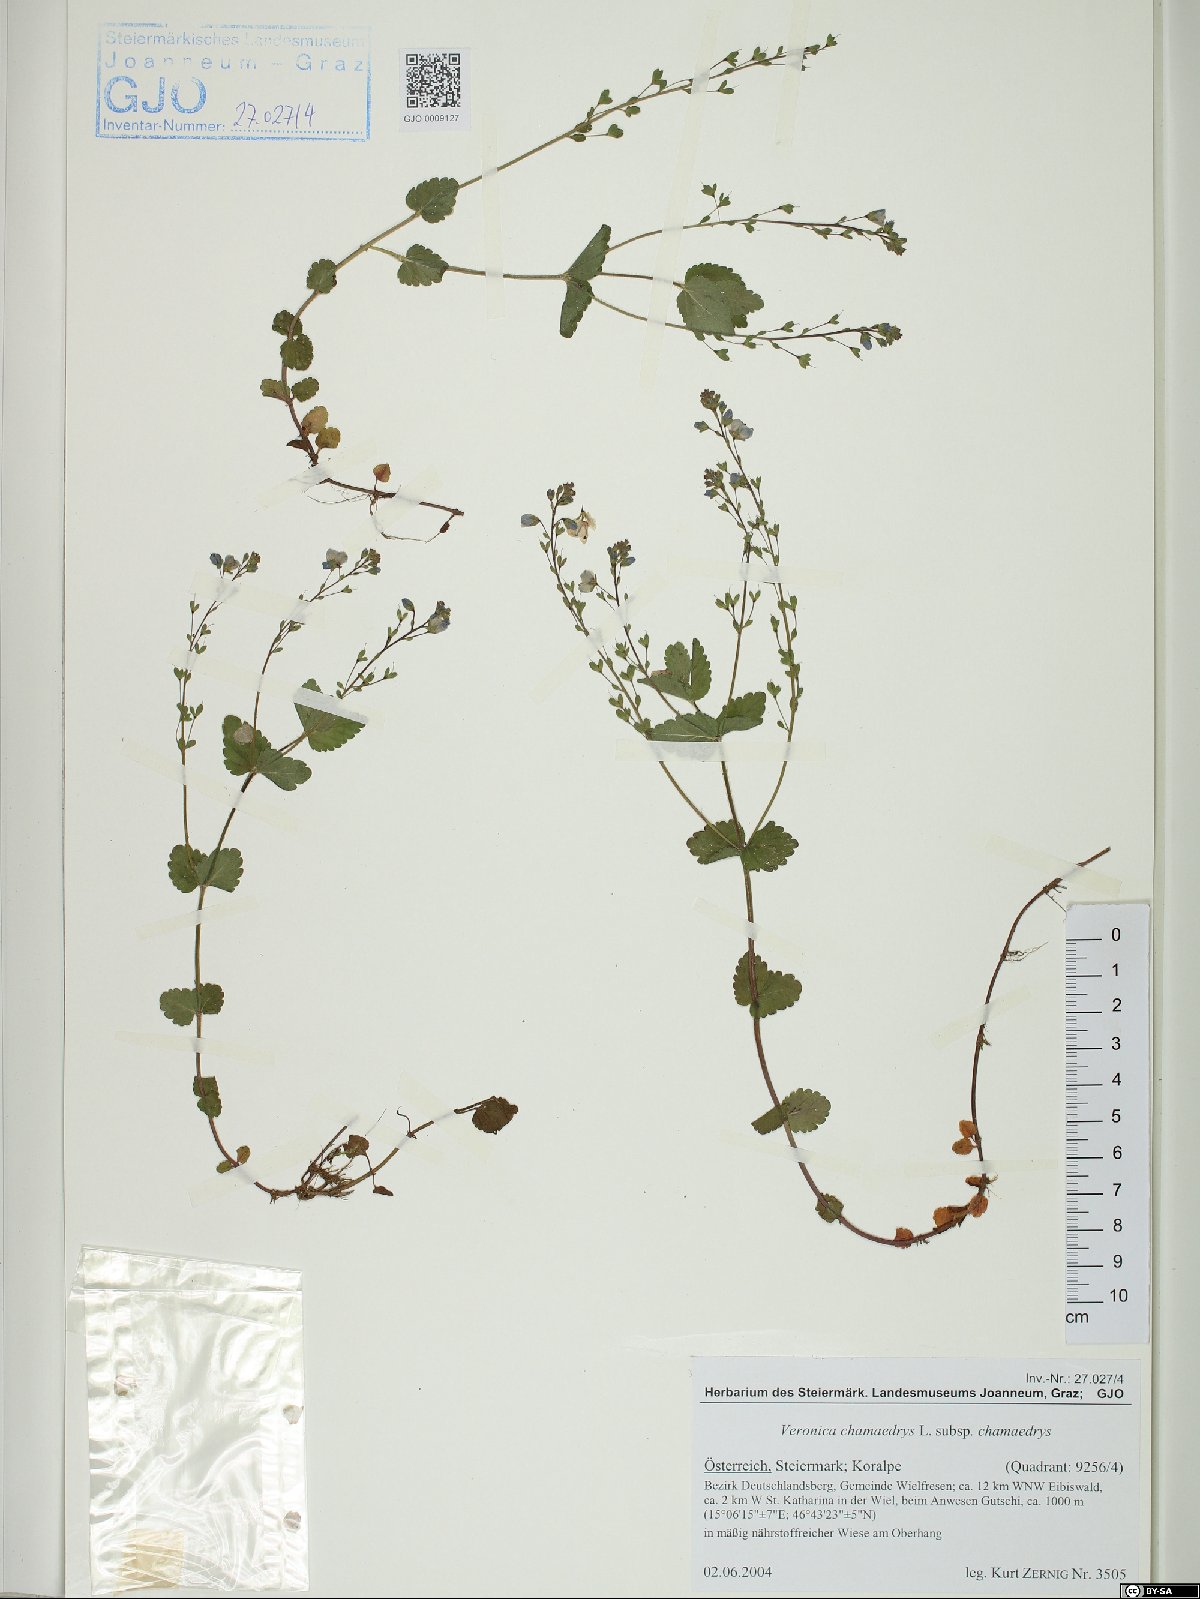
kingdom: Plantae
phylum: Tracheophyta
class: Magnoliopsida
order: Lamiales
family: Plantaginaceae
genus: Veronica
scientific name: Veronica chamaedrys
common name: Germander speedwell
